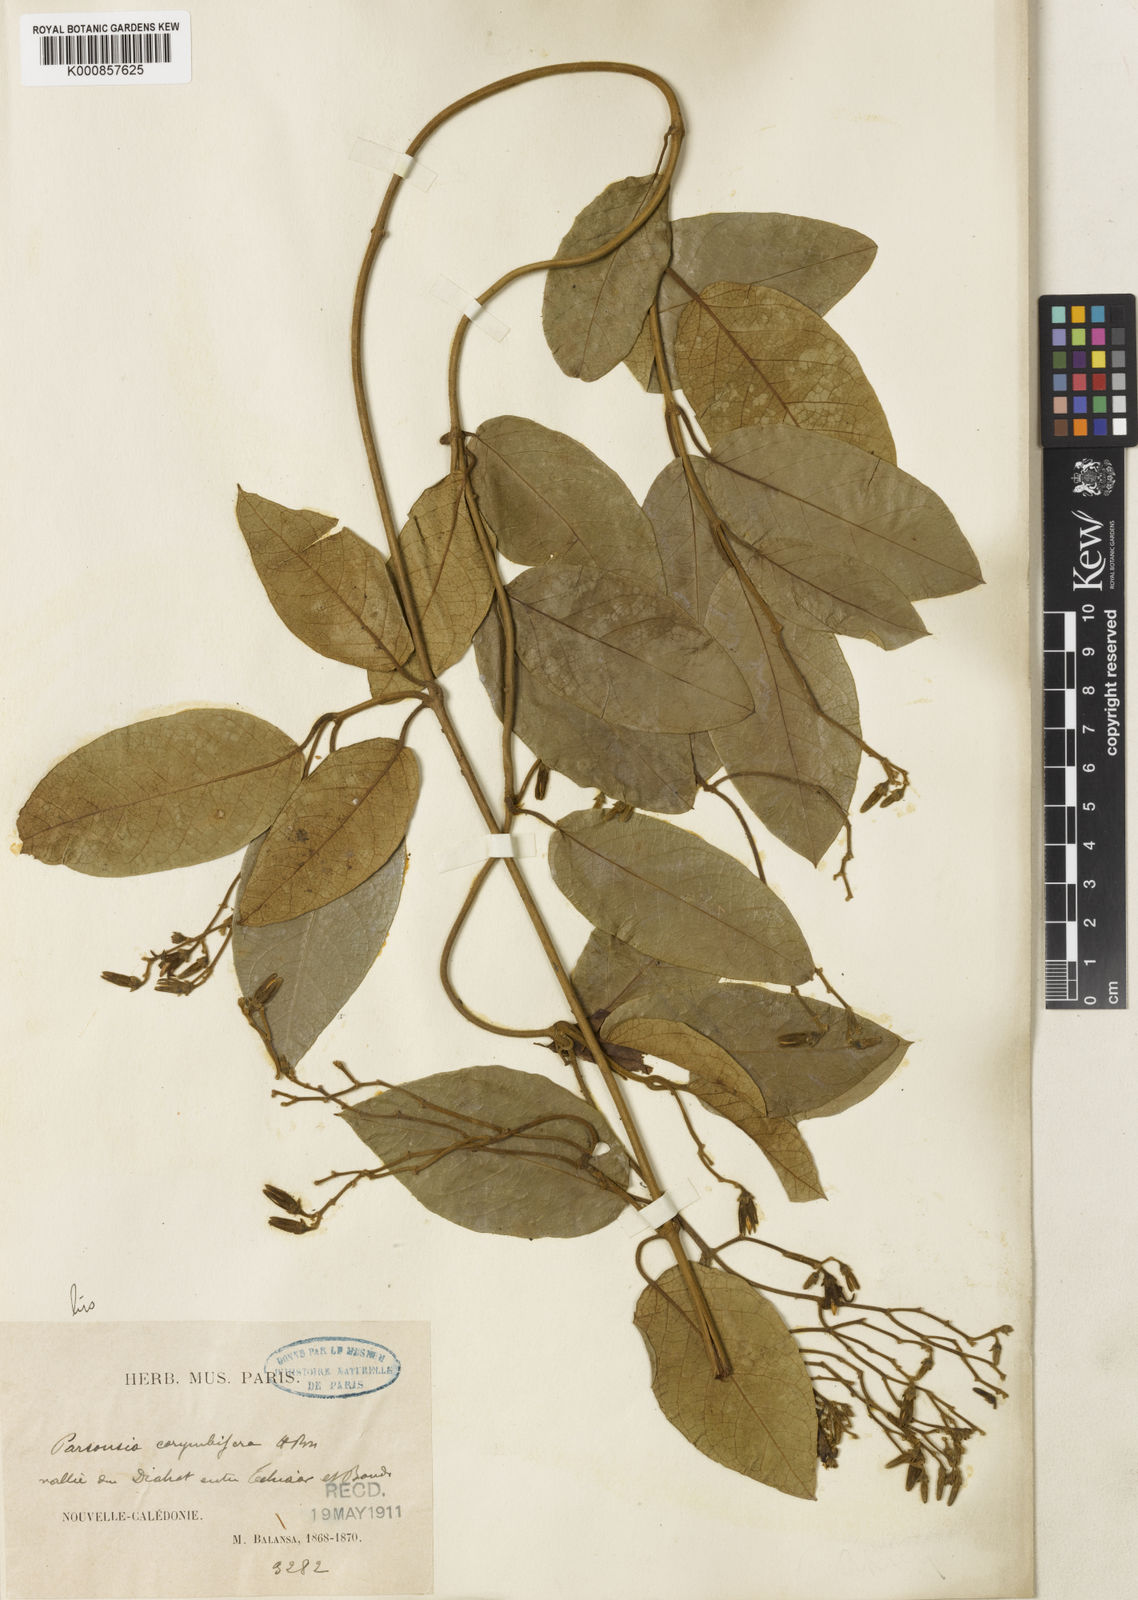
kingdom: Plantae
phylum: Tracheophyta
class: Magnoliopsida
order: Gentianales
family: Apocynaceae
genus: Parsonsia
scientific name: Parsonsia scabra
